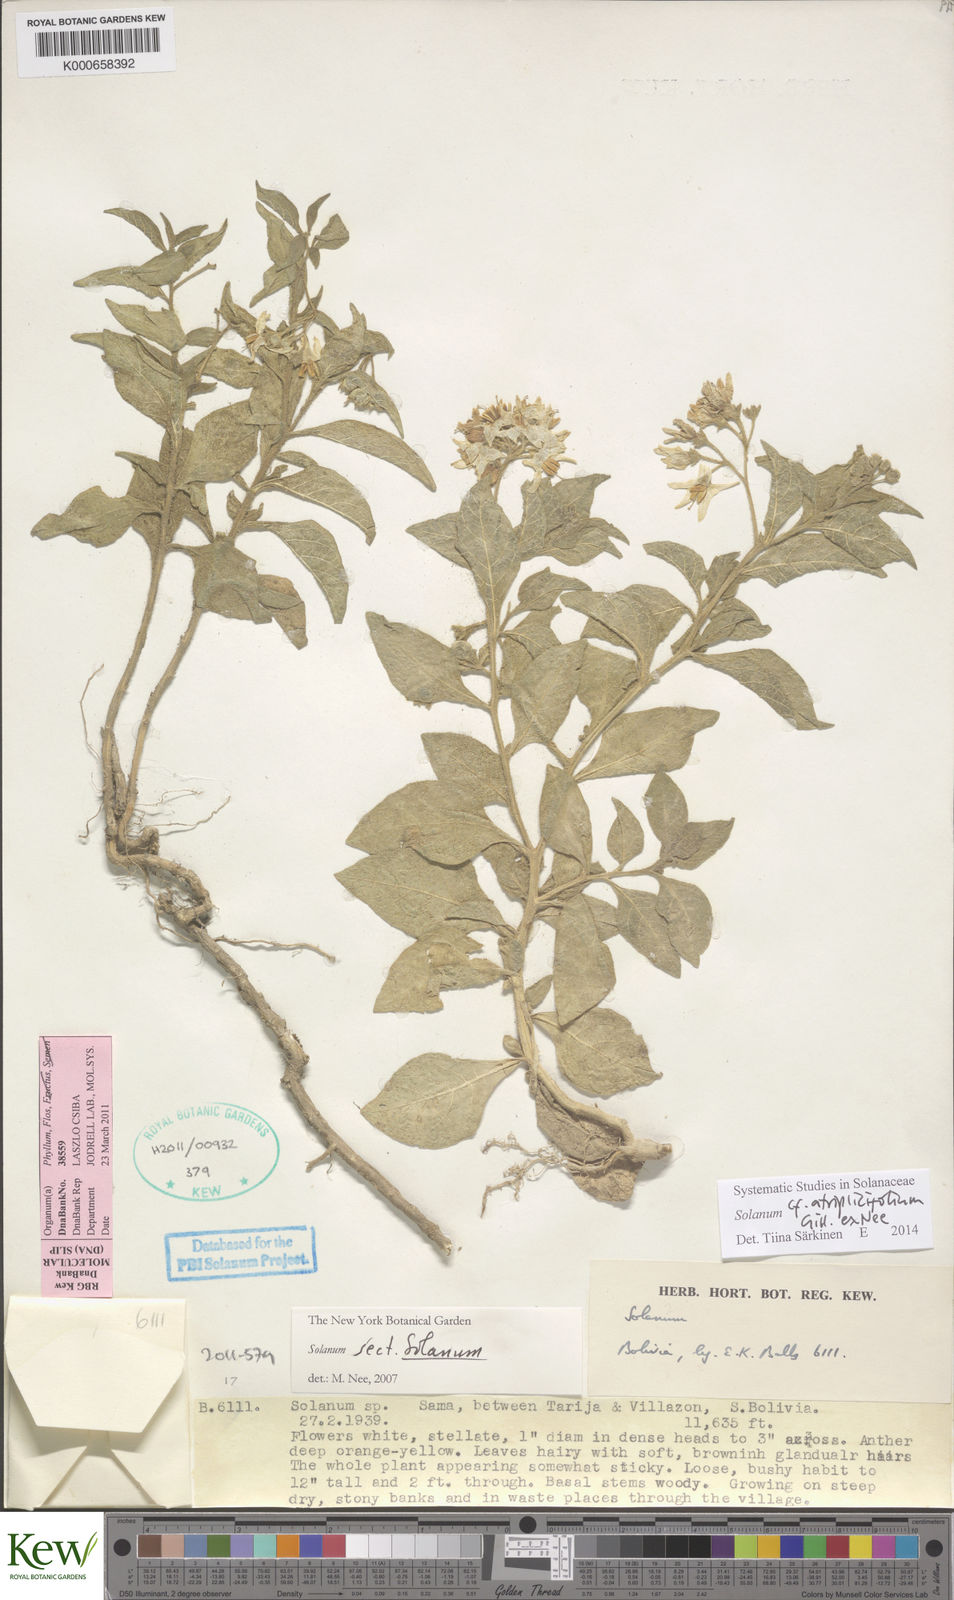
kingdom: Plantae
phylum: Tracheophyta
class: Magnoliopsida
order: Solanales
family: Solanaceae
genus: Solanum
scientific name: Solanum tweedianum
